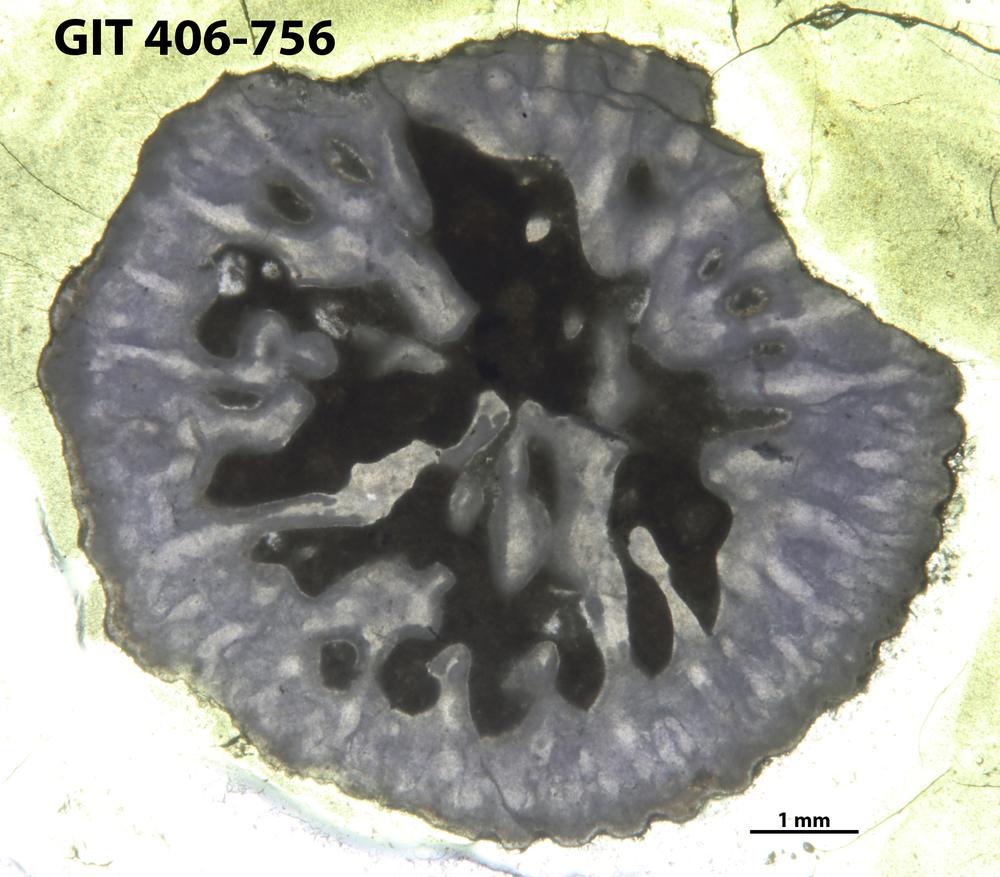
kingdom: Animalia
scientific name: Animalia
